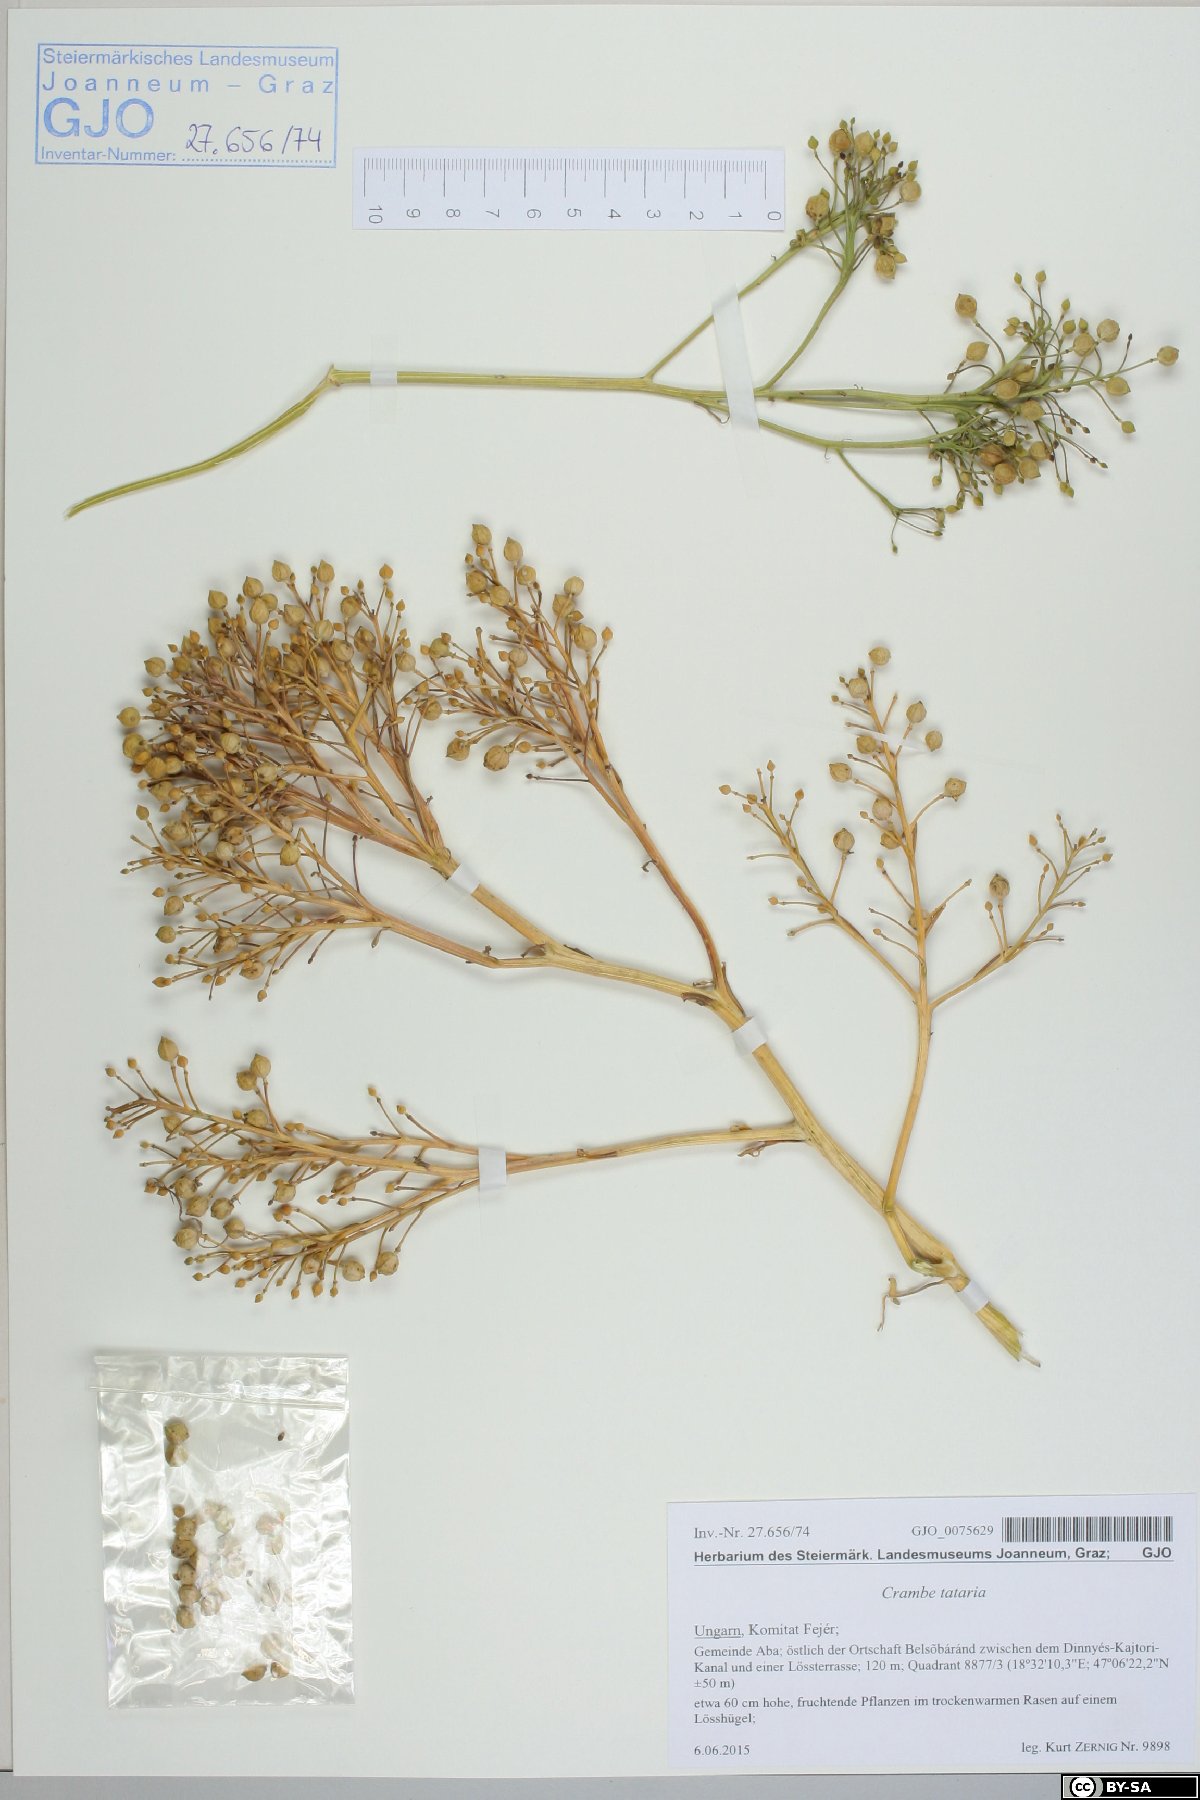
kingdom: Plantae
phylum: Tracheophyta
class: Magnoliopsida
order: Brassicales
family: Brassicaceae
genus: Crambe
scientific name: Crambe tataria
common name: Tartarian breadplant
